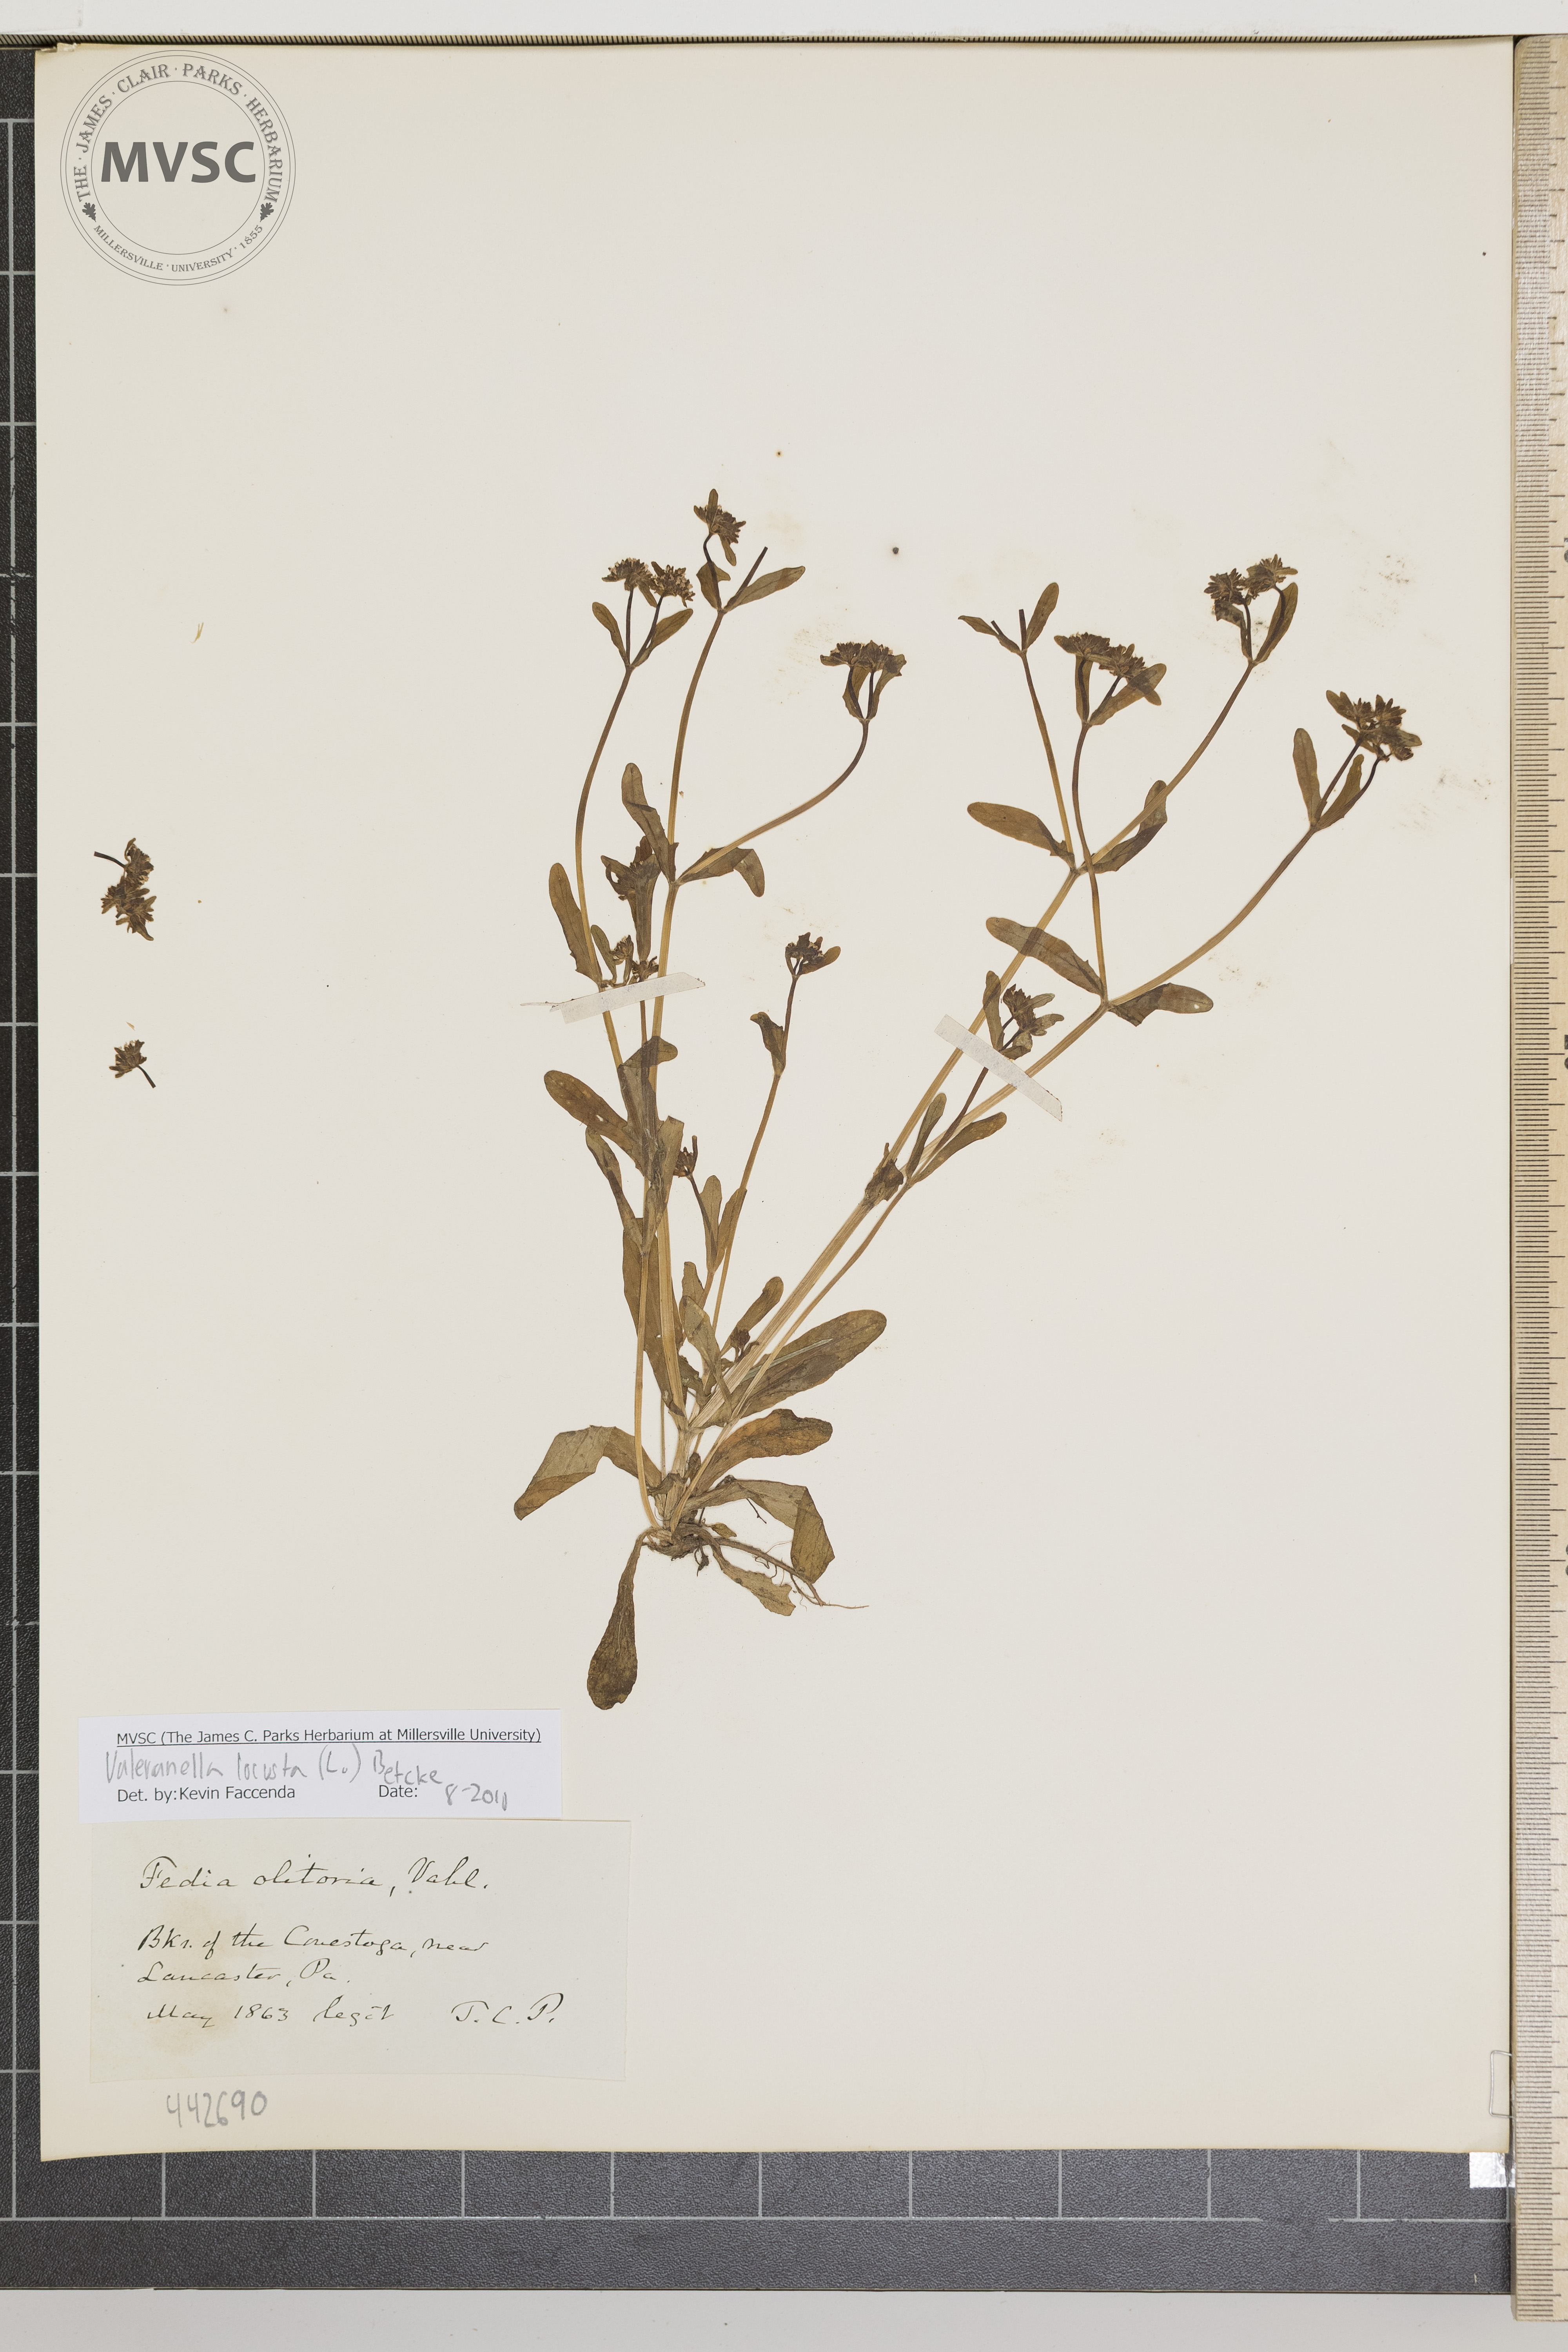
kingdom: Plantae
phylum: Tracheophyta
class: Magnoliopsida
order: Dipsacales
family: Caprifoliaceae
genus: Valerianella
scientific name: Valerianella locusta
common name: Common cornsalad
